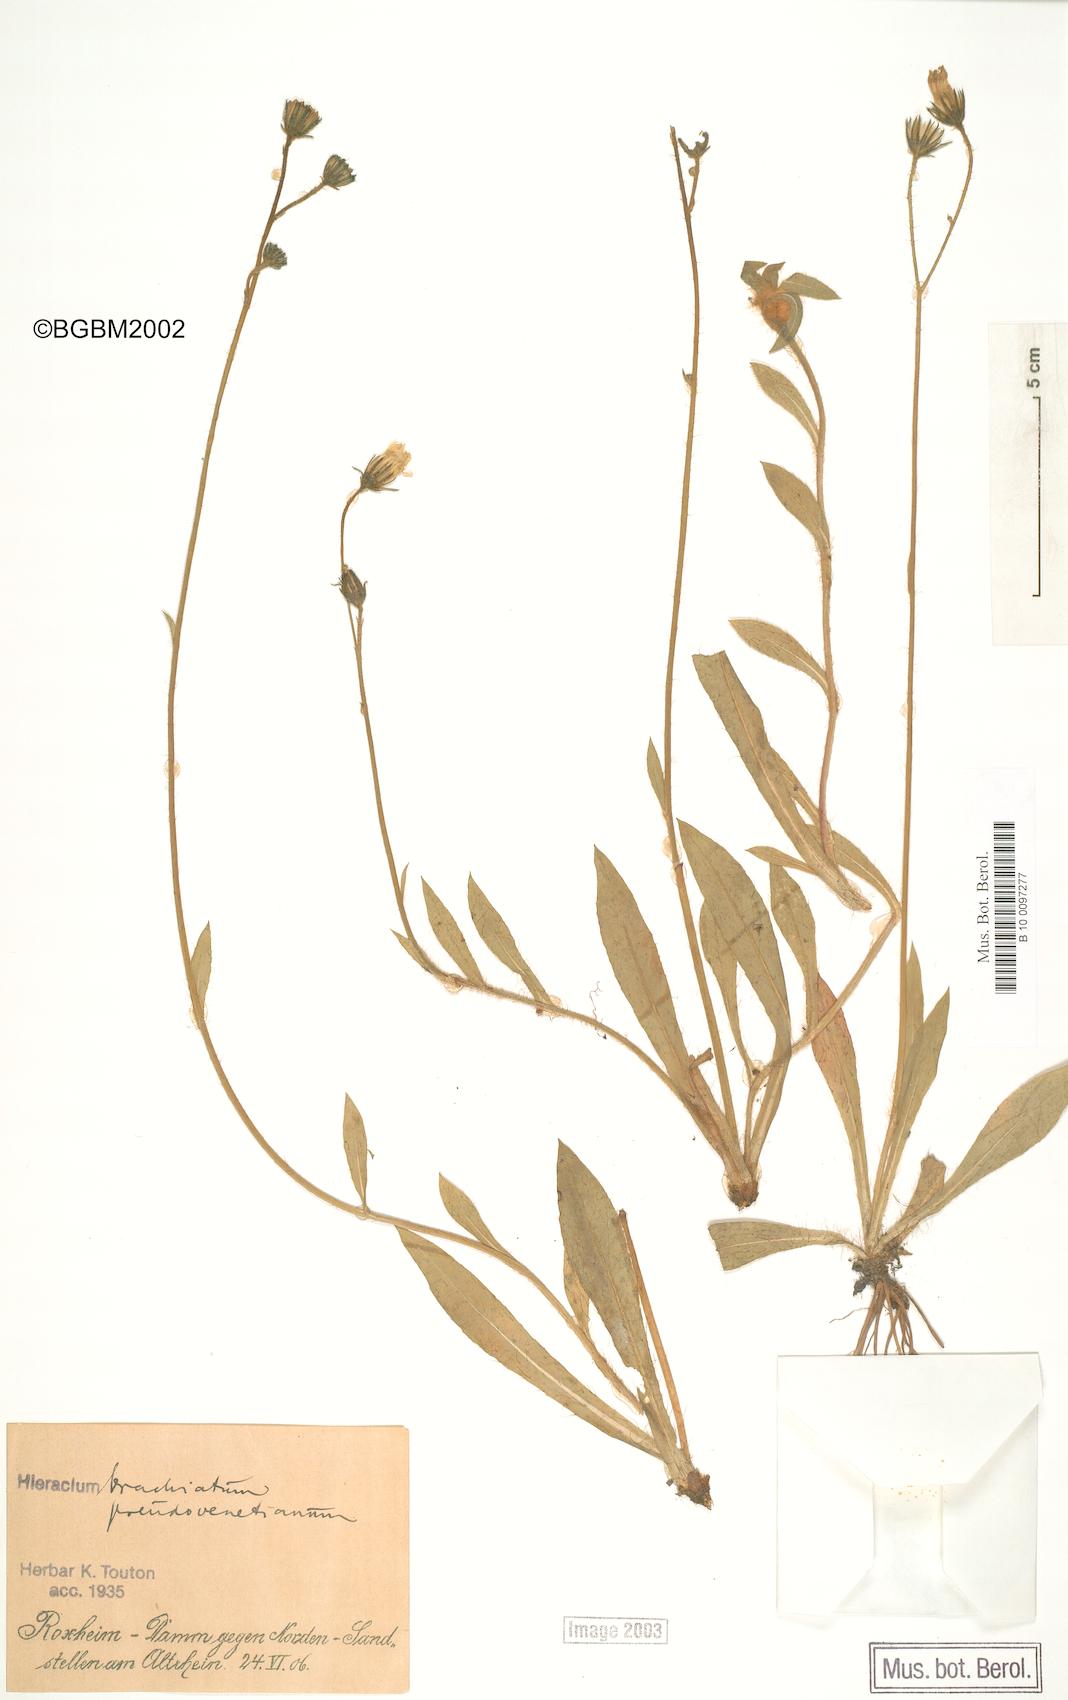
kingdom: Plantae
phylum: Tracheophyta
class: Magnoliopsida
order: Asterales
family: Asteraceae
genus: Pilosella
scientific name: Pilosella acutifolia
